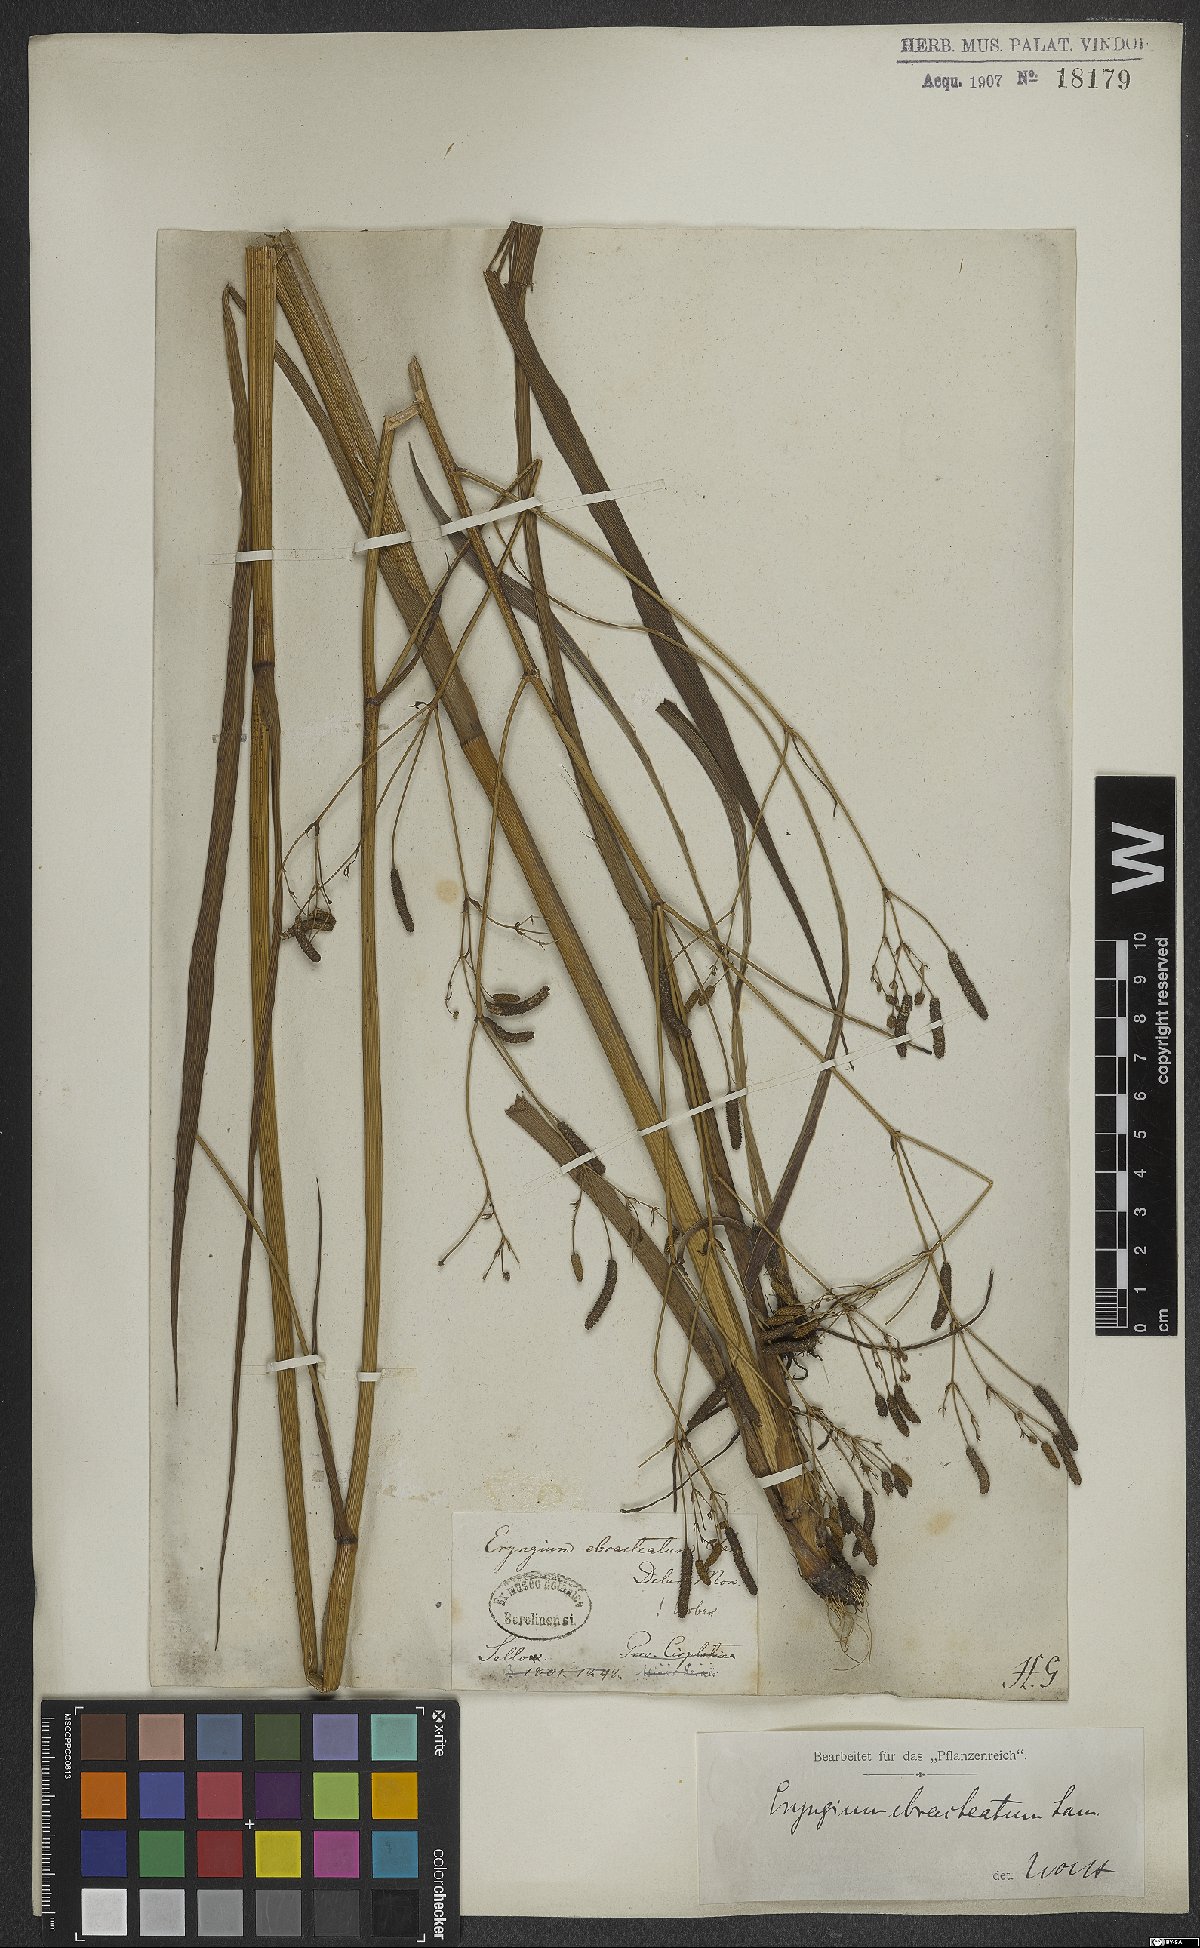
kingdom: Plantae
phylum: Tracheophyta
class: Magnoliopsida
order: Apiales
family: Apiaceae
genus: Eryngium
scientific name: Eryngium ebracteatum
